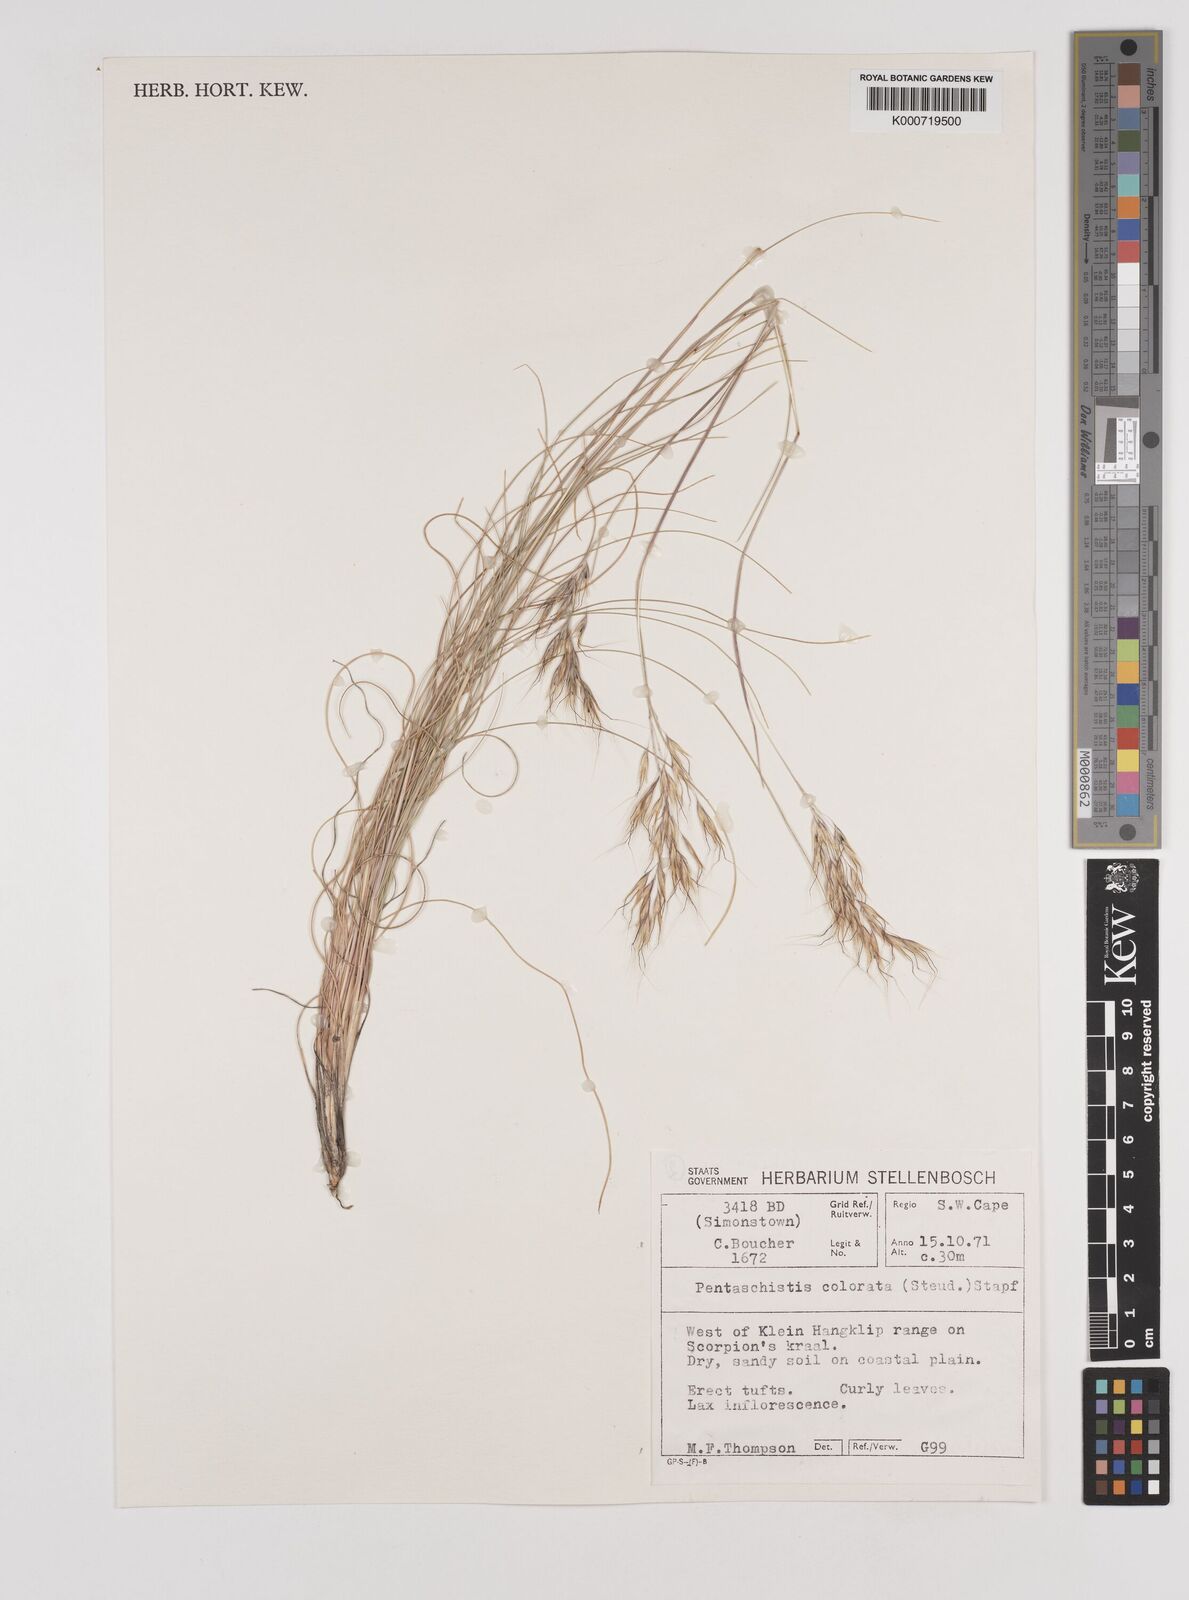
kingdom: Plantae
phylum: Tracheophyta
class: Liliopsida
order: Poales
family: Poaceae
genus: Pentameris
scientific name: Pentameris colorata
